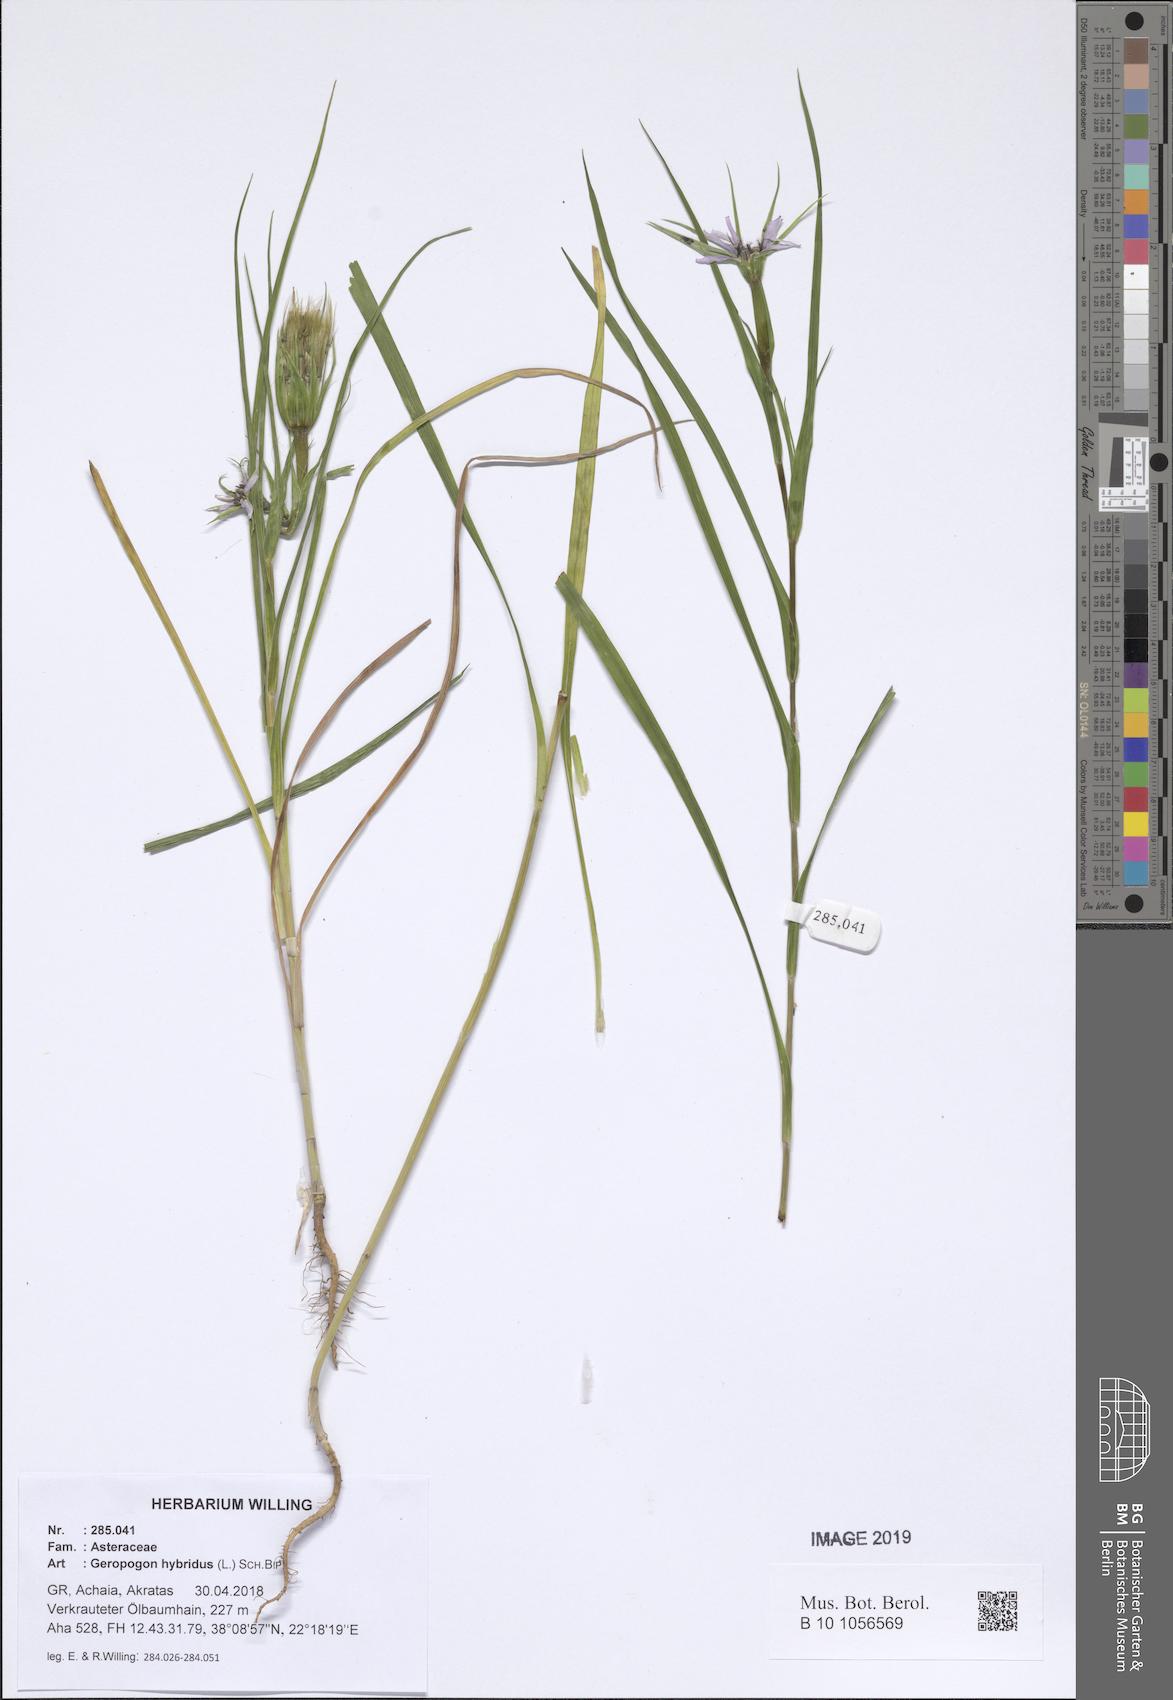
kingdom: Plantae
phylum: Tracheophyta
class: Magnoliopsida
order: Asterales
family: Asteraceae
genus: Geropogon
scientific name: Geropogon hybridus
